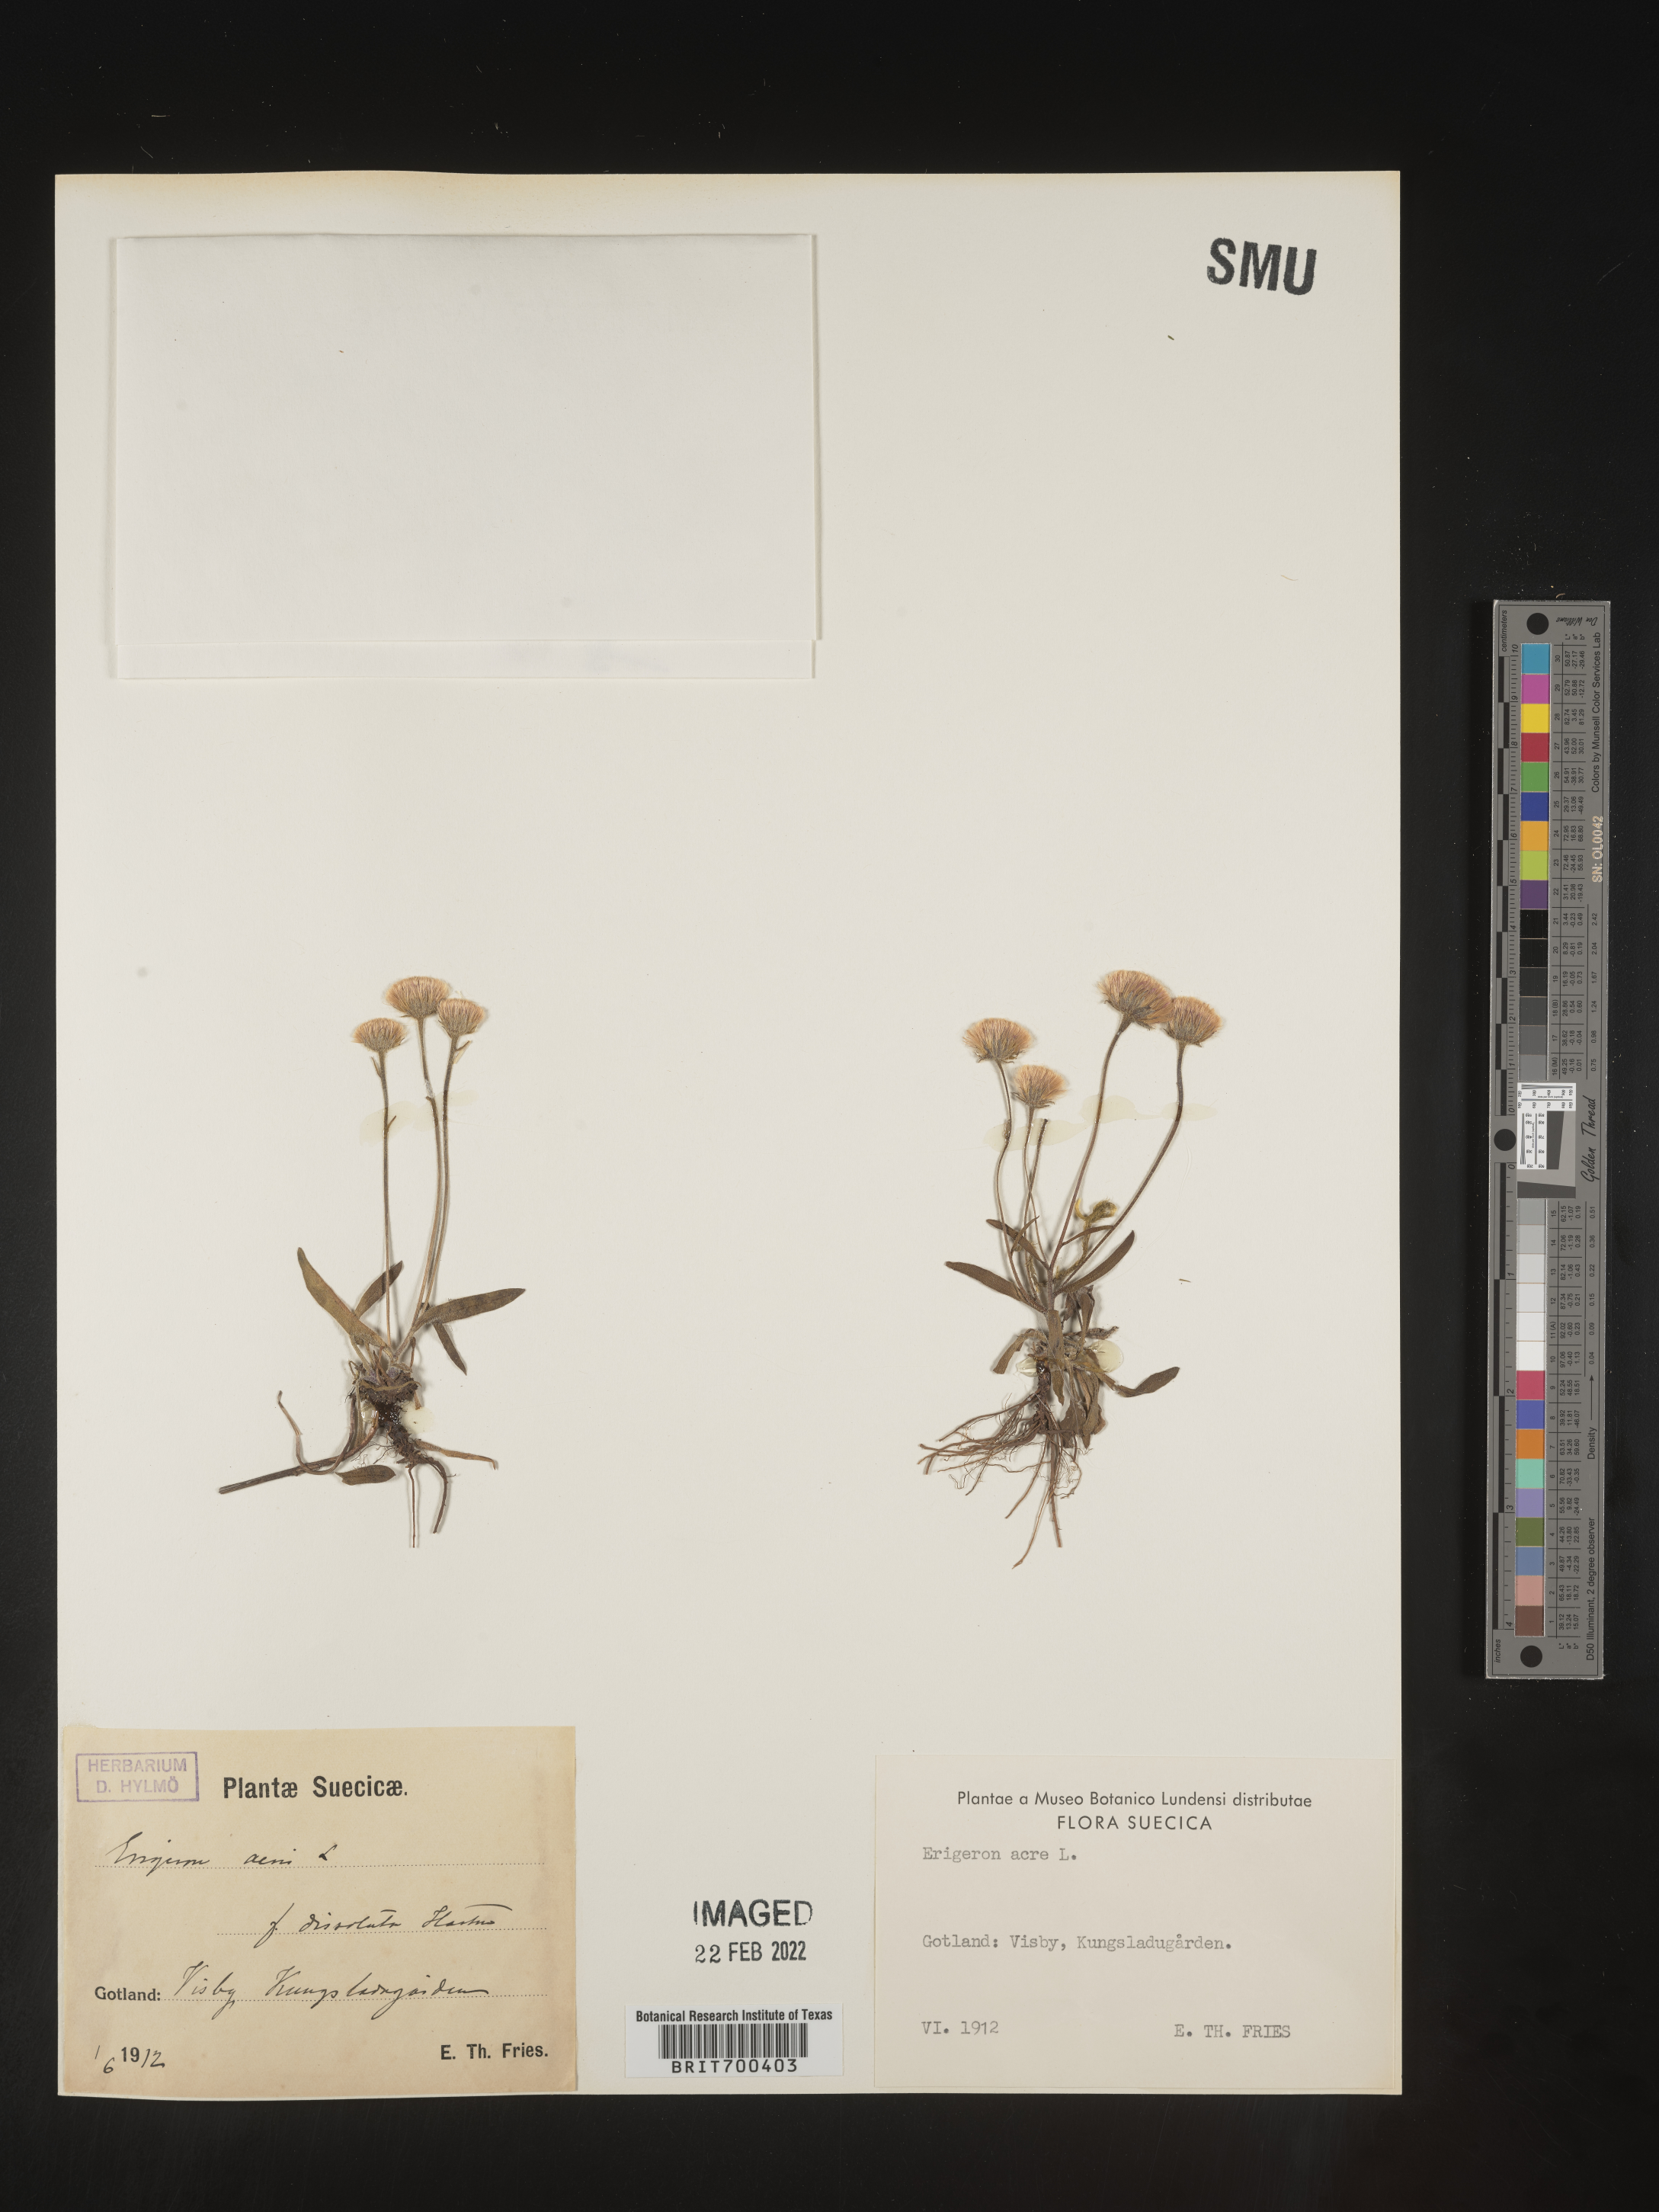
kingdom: Plantae
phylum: Tracheophyta
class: Magnoliopsida
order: Asterales
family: Asteraceae
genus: Erigeron
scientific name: Erigeron
